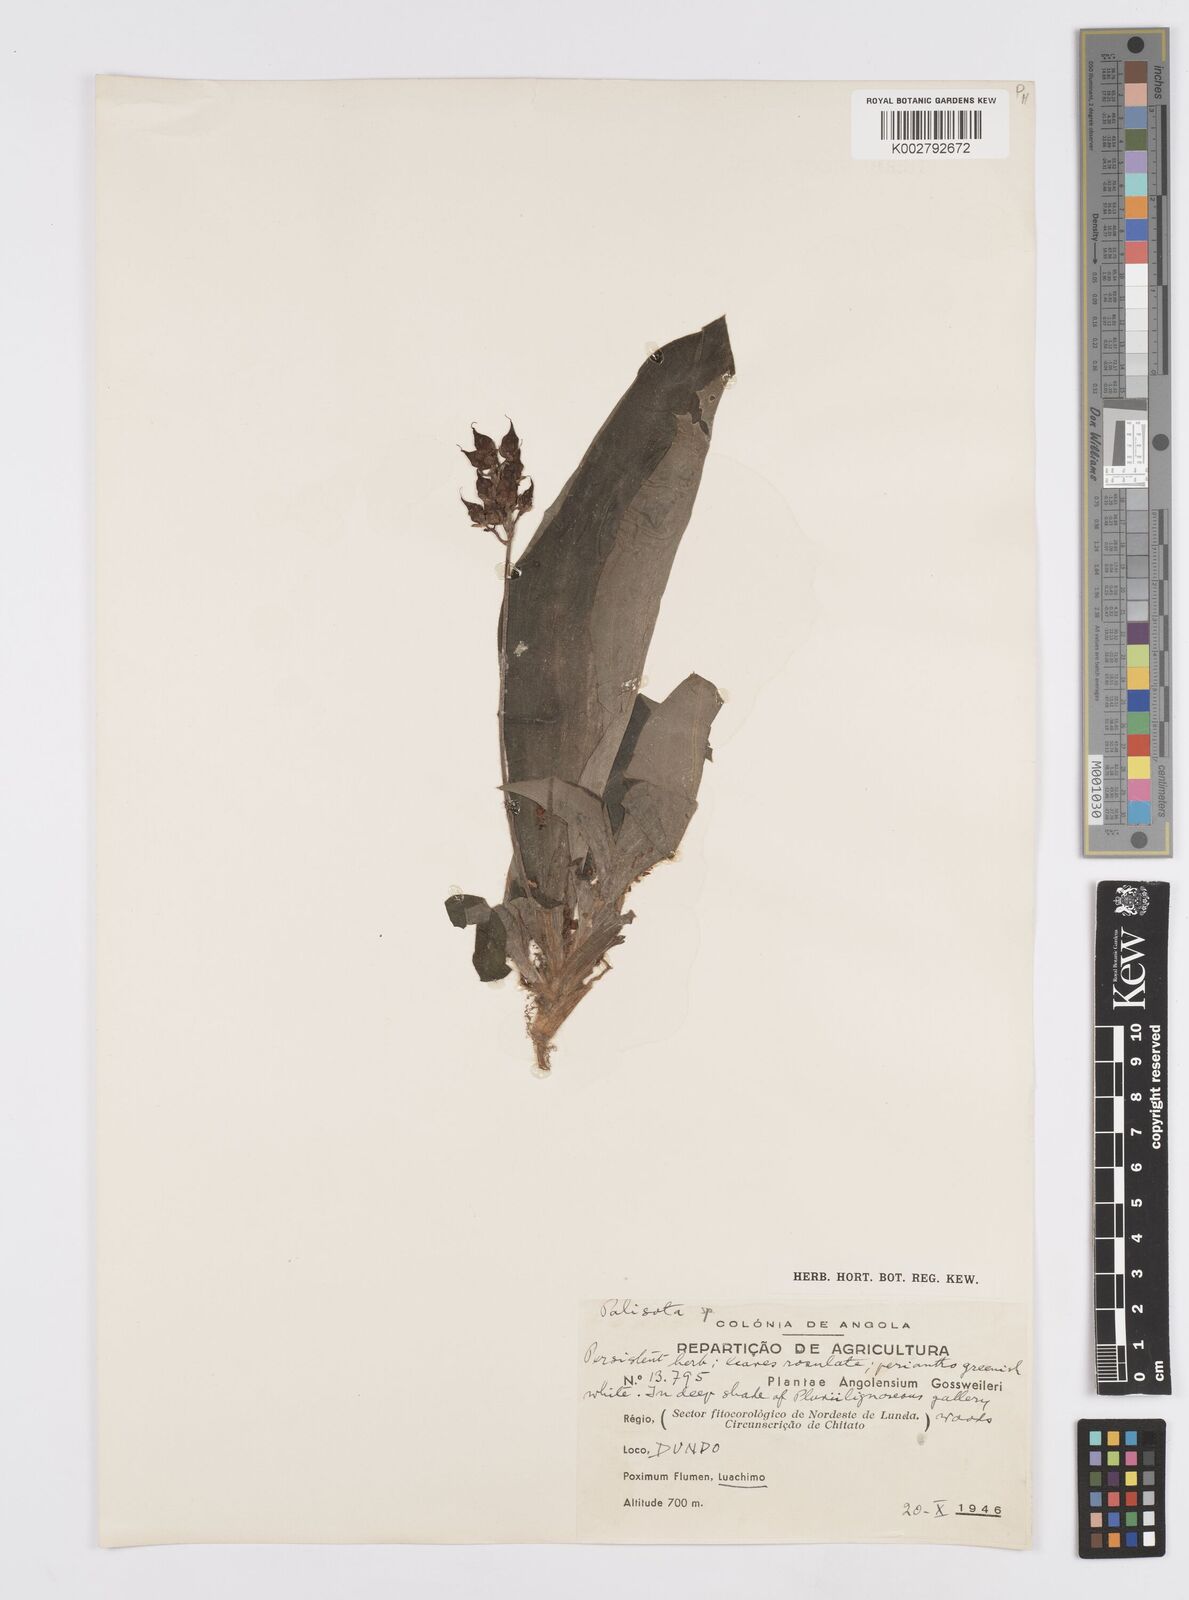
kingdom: Plantae
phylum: Tracheophyta
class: Liliopsida
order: Commelinales
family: Commelinaceae
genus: Palisota
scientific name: Palisota
